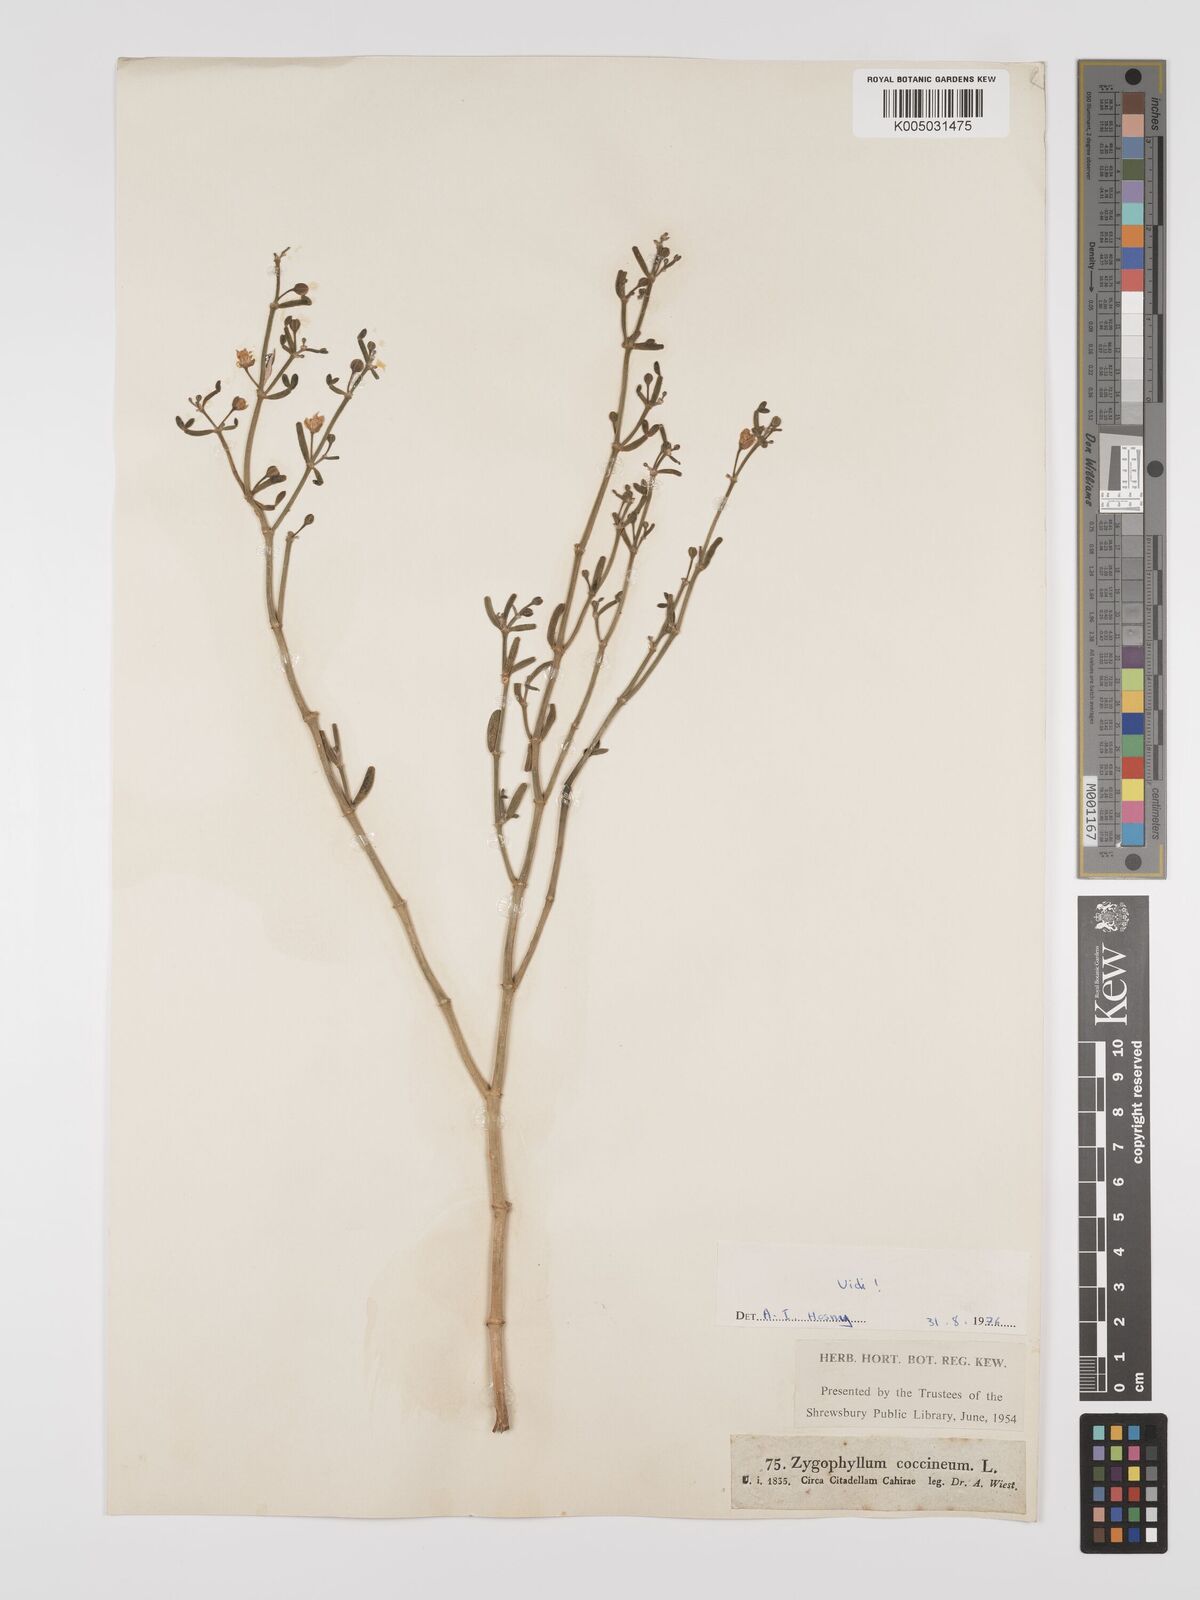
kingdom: Plantae
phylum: Tracheophyta
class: Magnoliopsida
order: Zygophyllales
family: Zygophyllaceae
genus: Tetraena
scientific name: Tetraena coccinea
